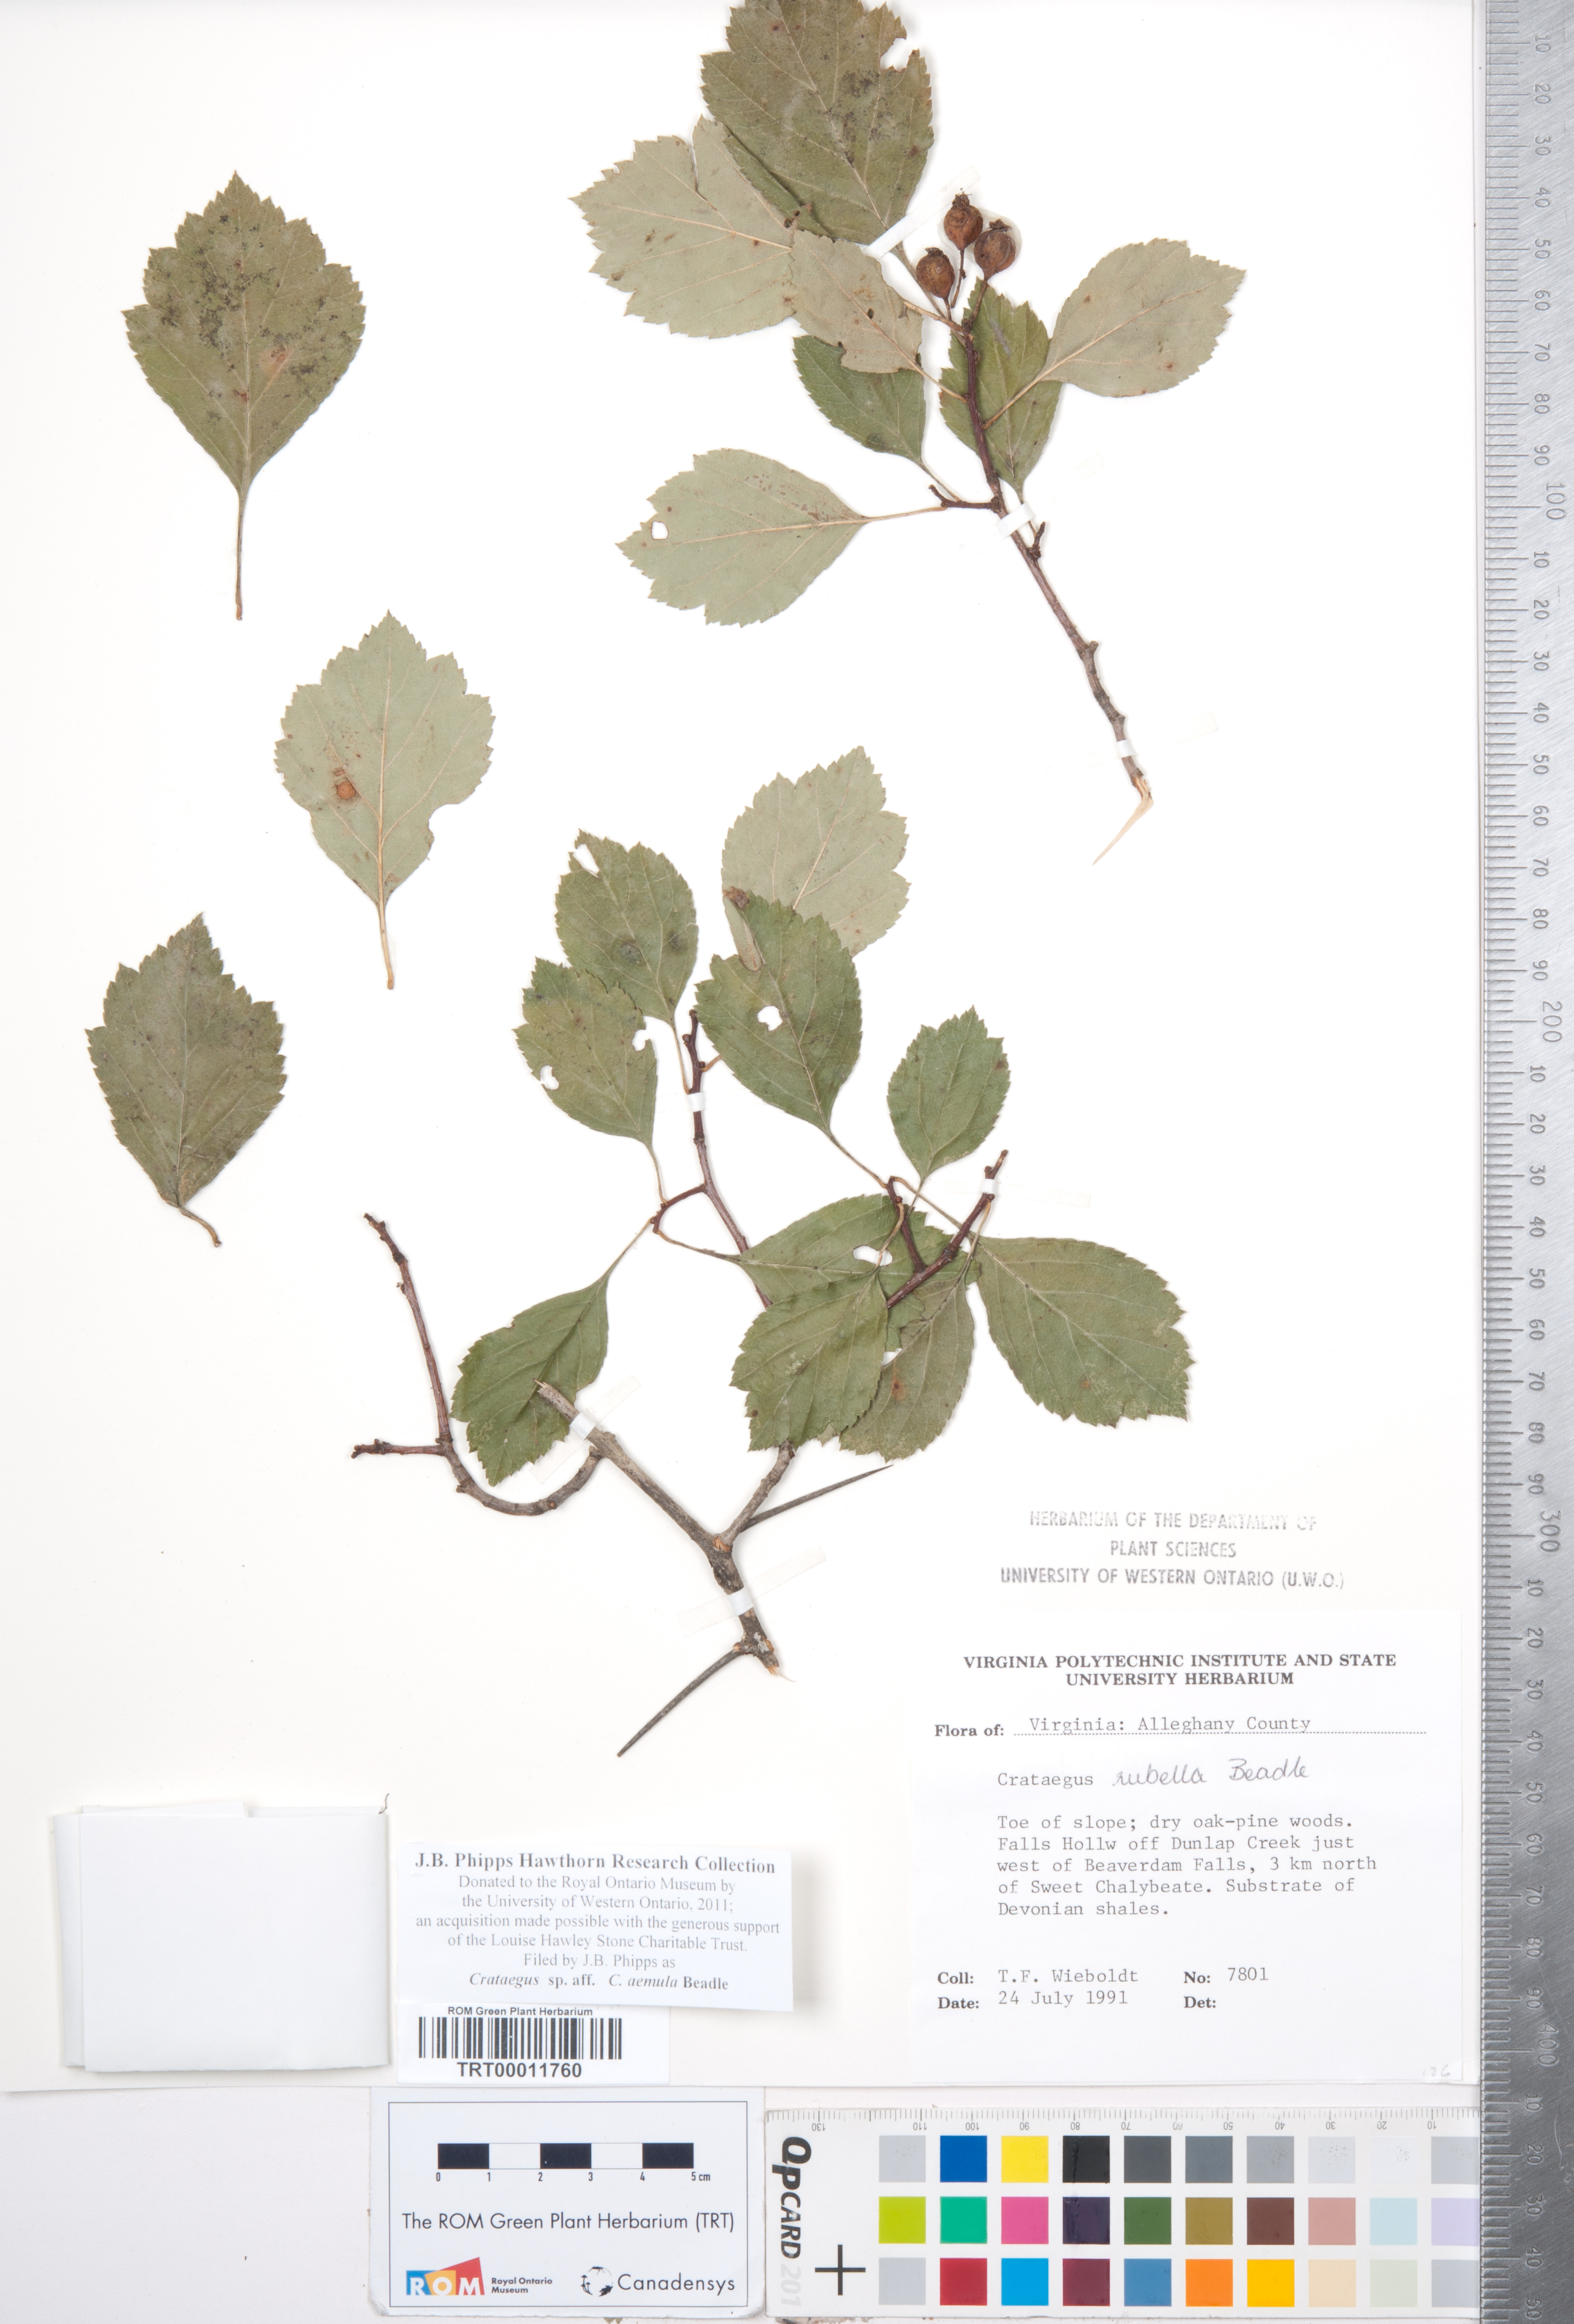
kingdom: Plantae
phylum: Tracheophyta
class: Magnoliopsida
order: Rosales
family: Rosaceae
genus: Crataegus
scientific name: Crataegus iracunda
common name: Stolon-bearing hawthorn
